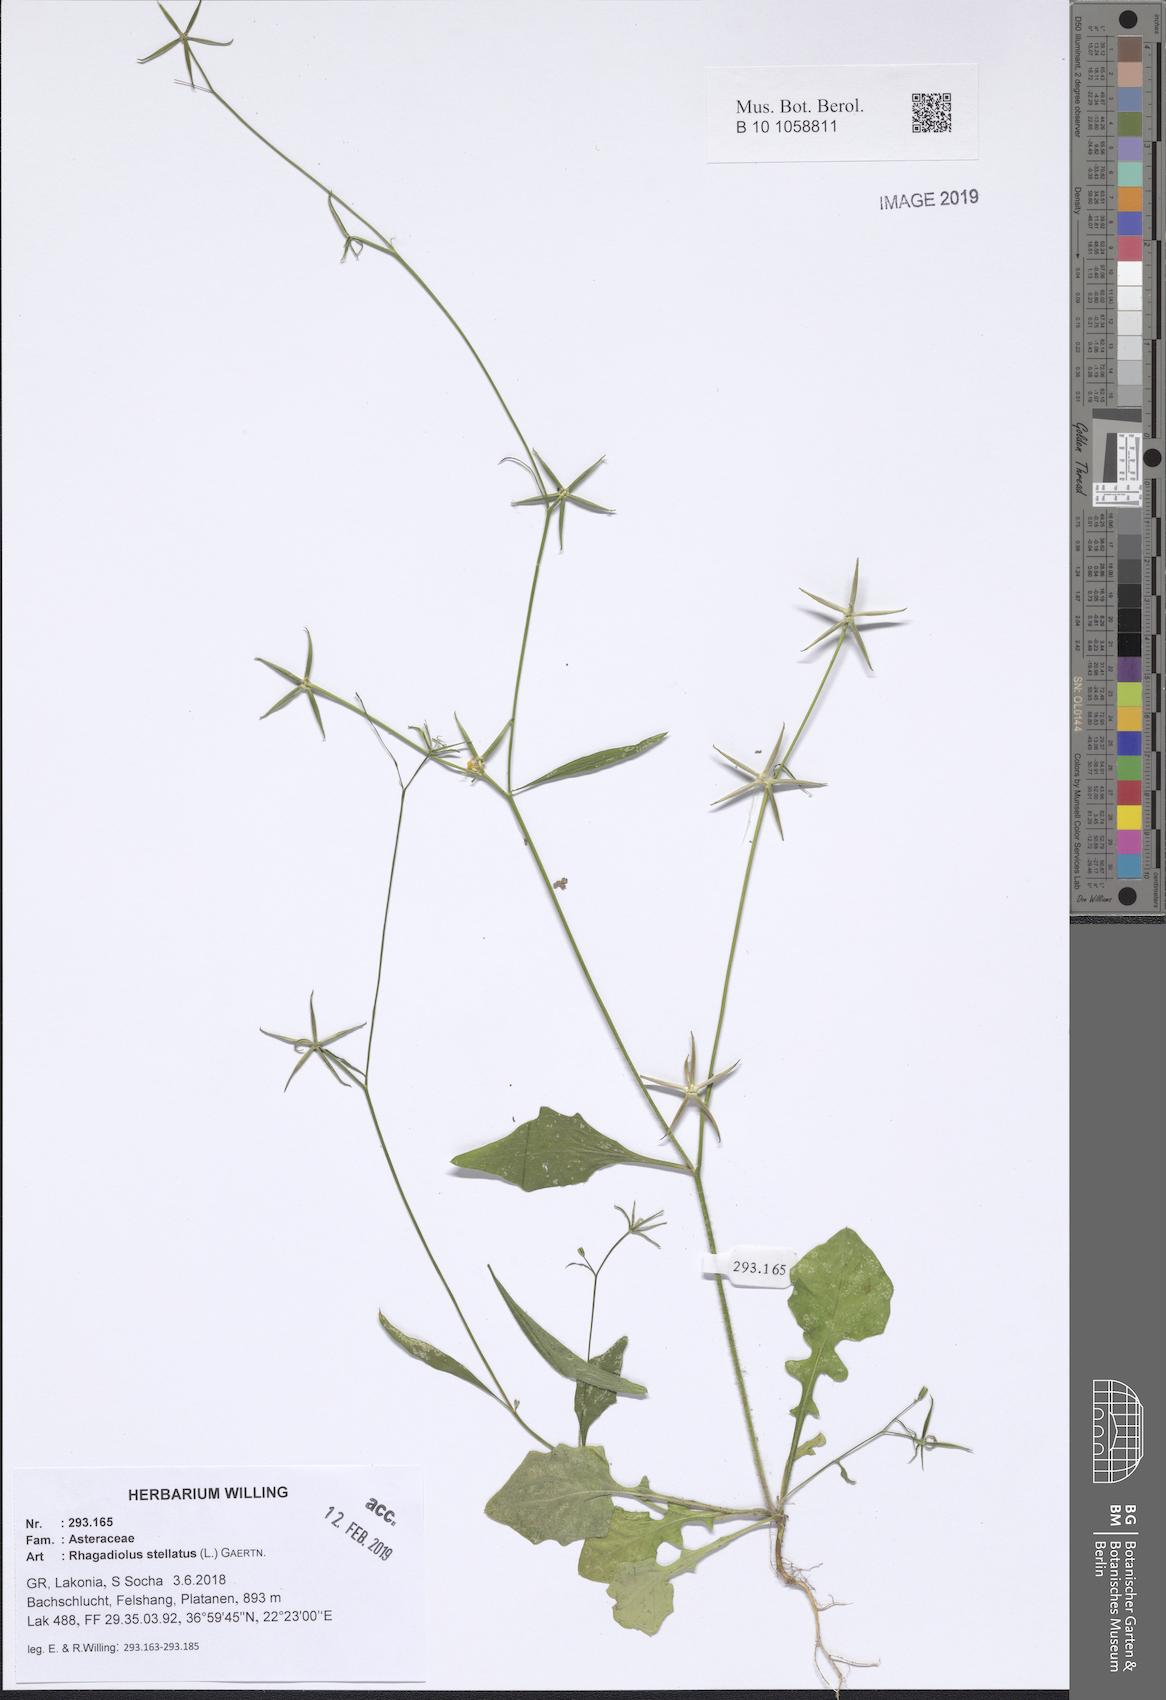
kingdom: Plantae
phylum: Tracheophyta
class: Magnoliopsida
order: Asterales
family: Asteraceae
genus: Rhagadiolus
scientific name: Rhagadiolus stellatus
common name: Star hawkbit
